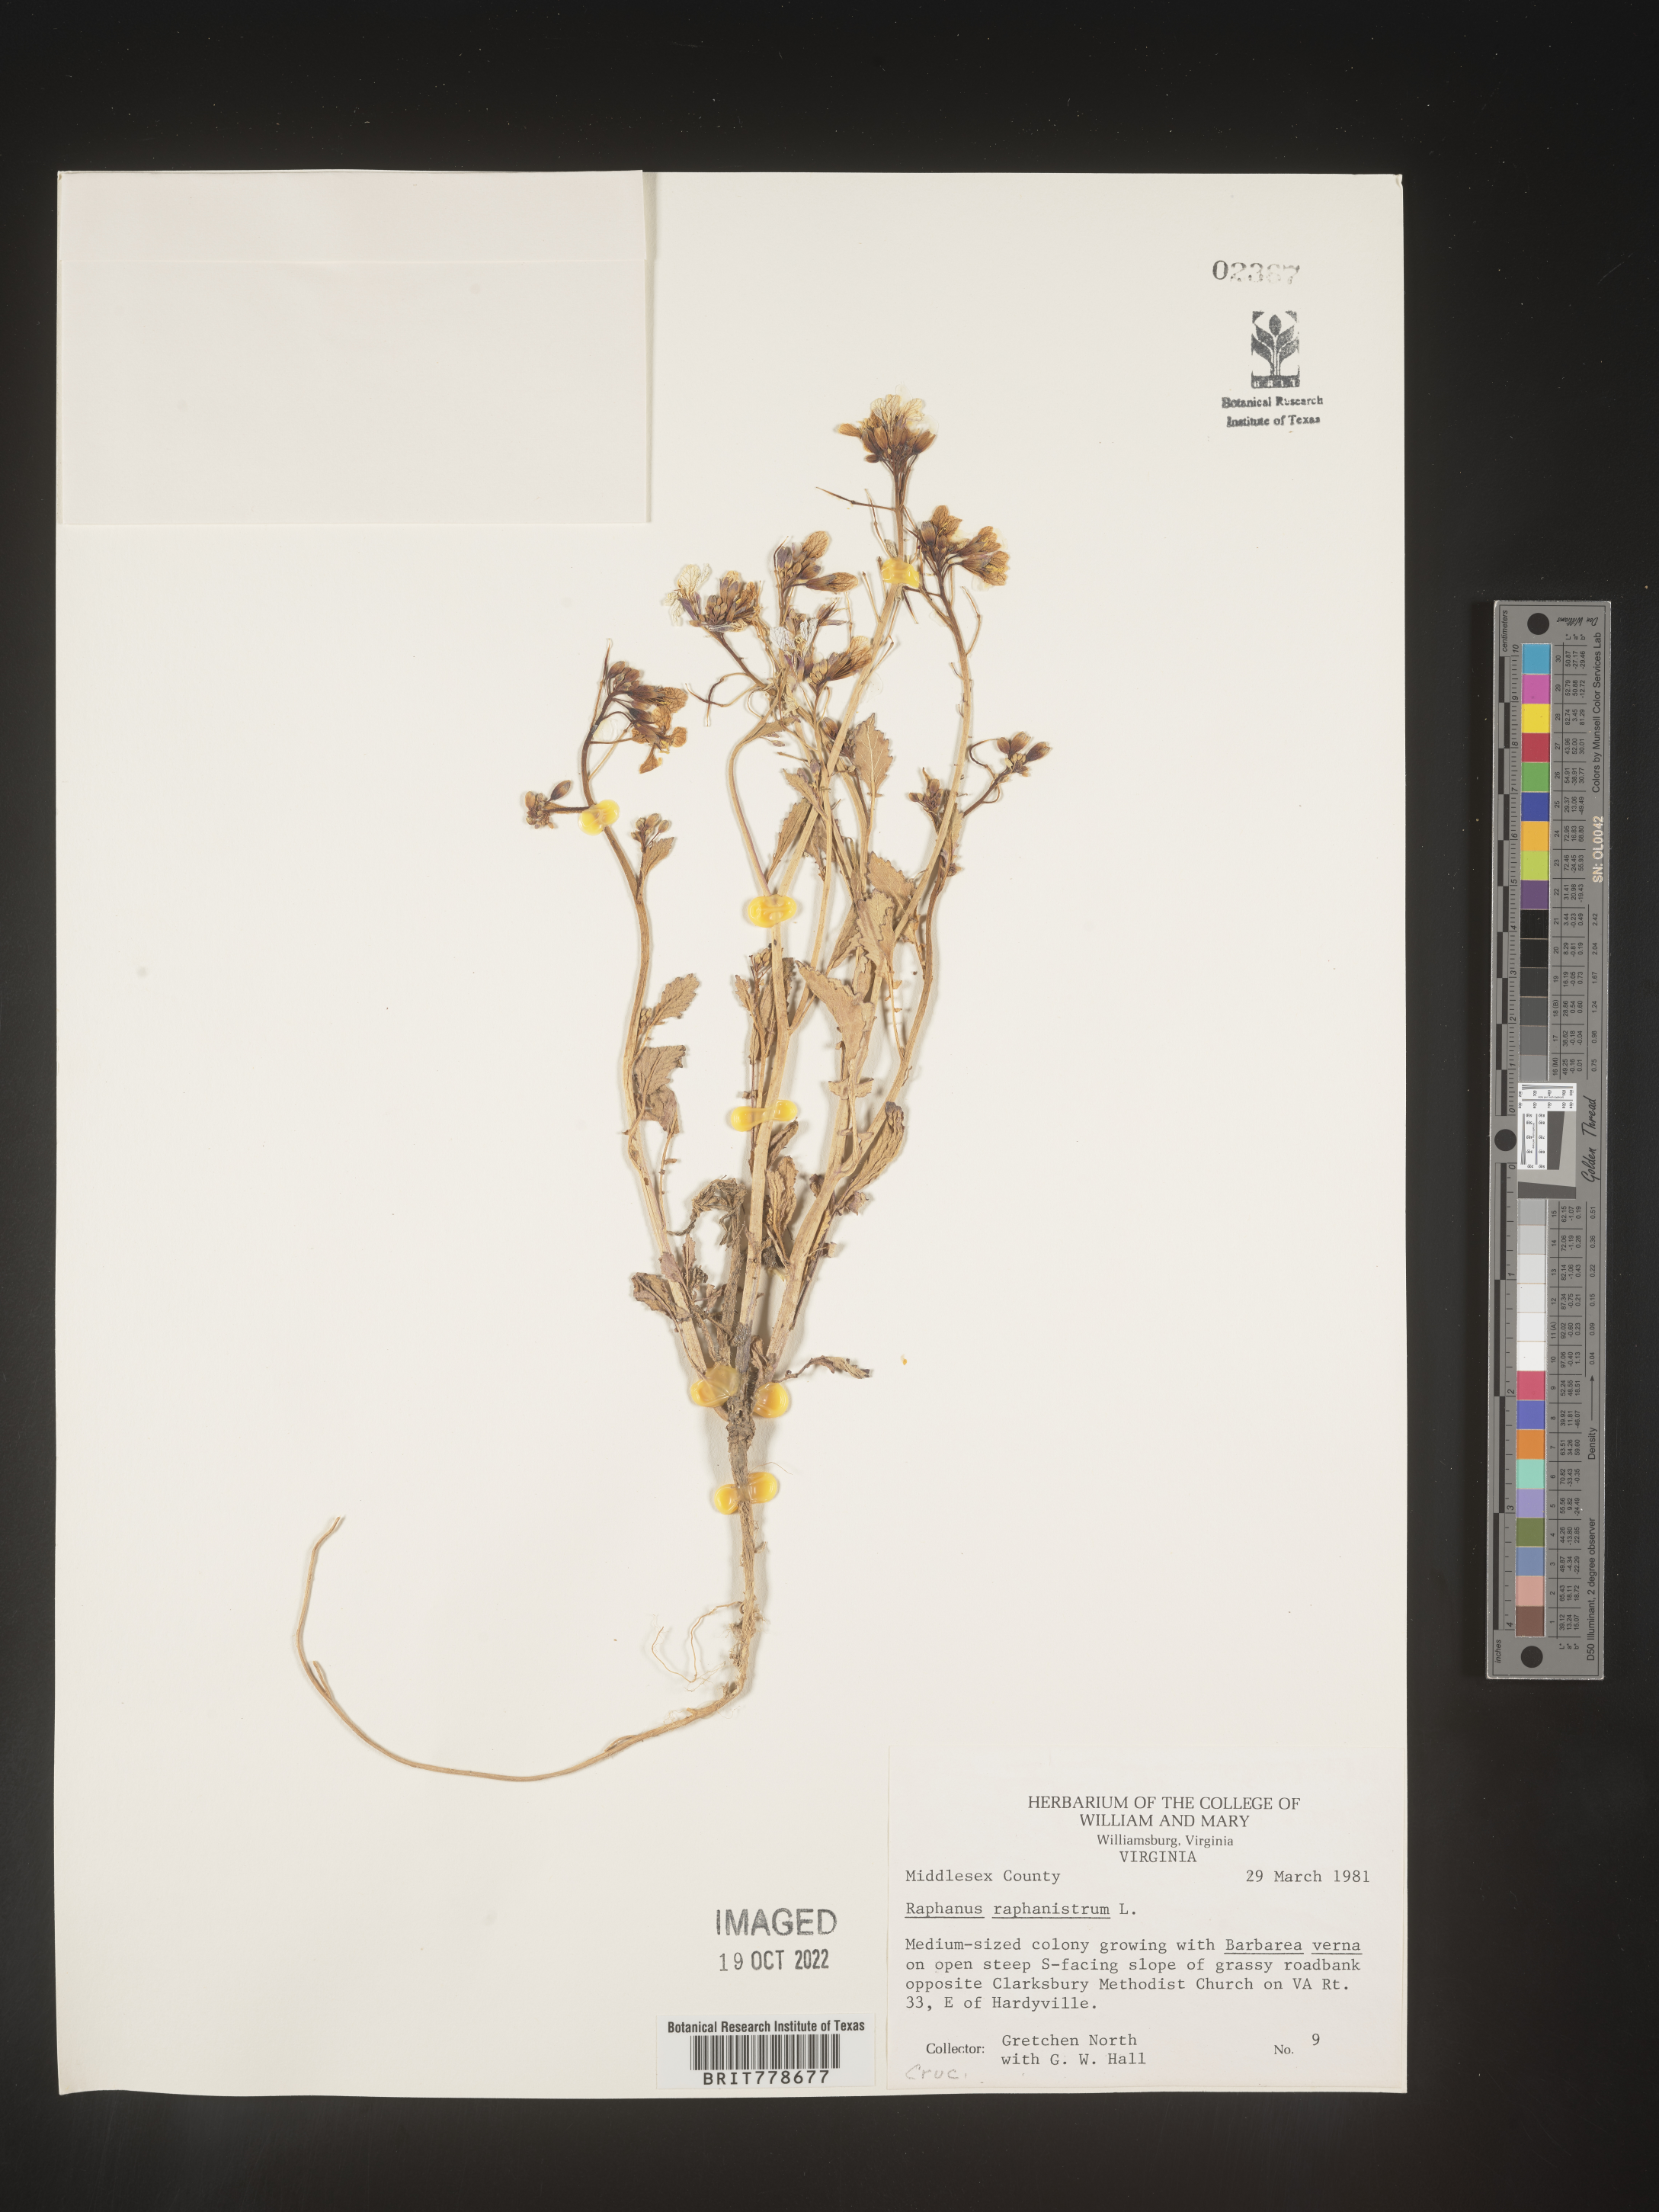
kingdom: Plantae
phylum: Tracheophyta
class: Magnoliopsida
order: Brassicales
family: Brassicaceae
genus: Raphanus
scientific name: Raphanus raphanistrum
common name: Wild radish
